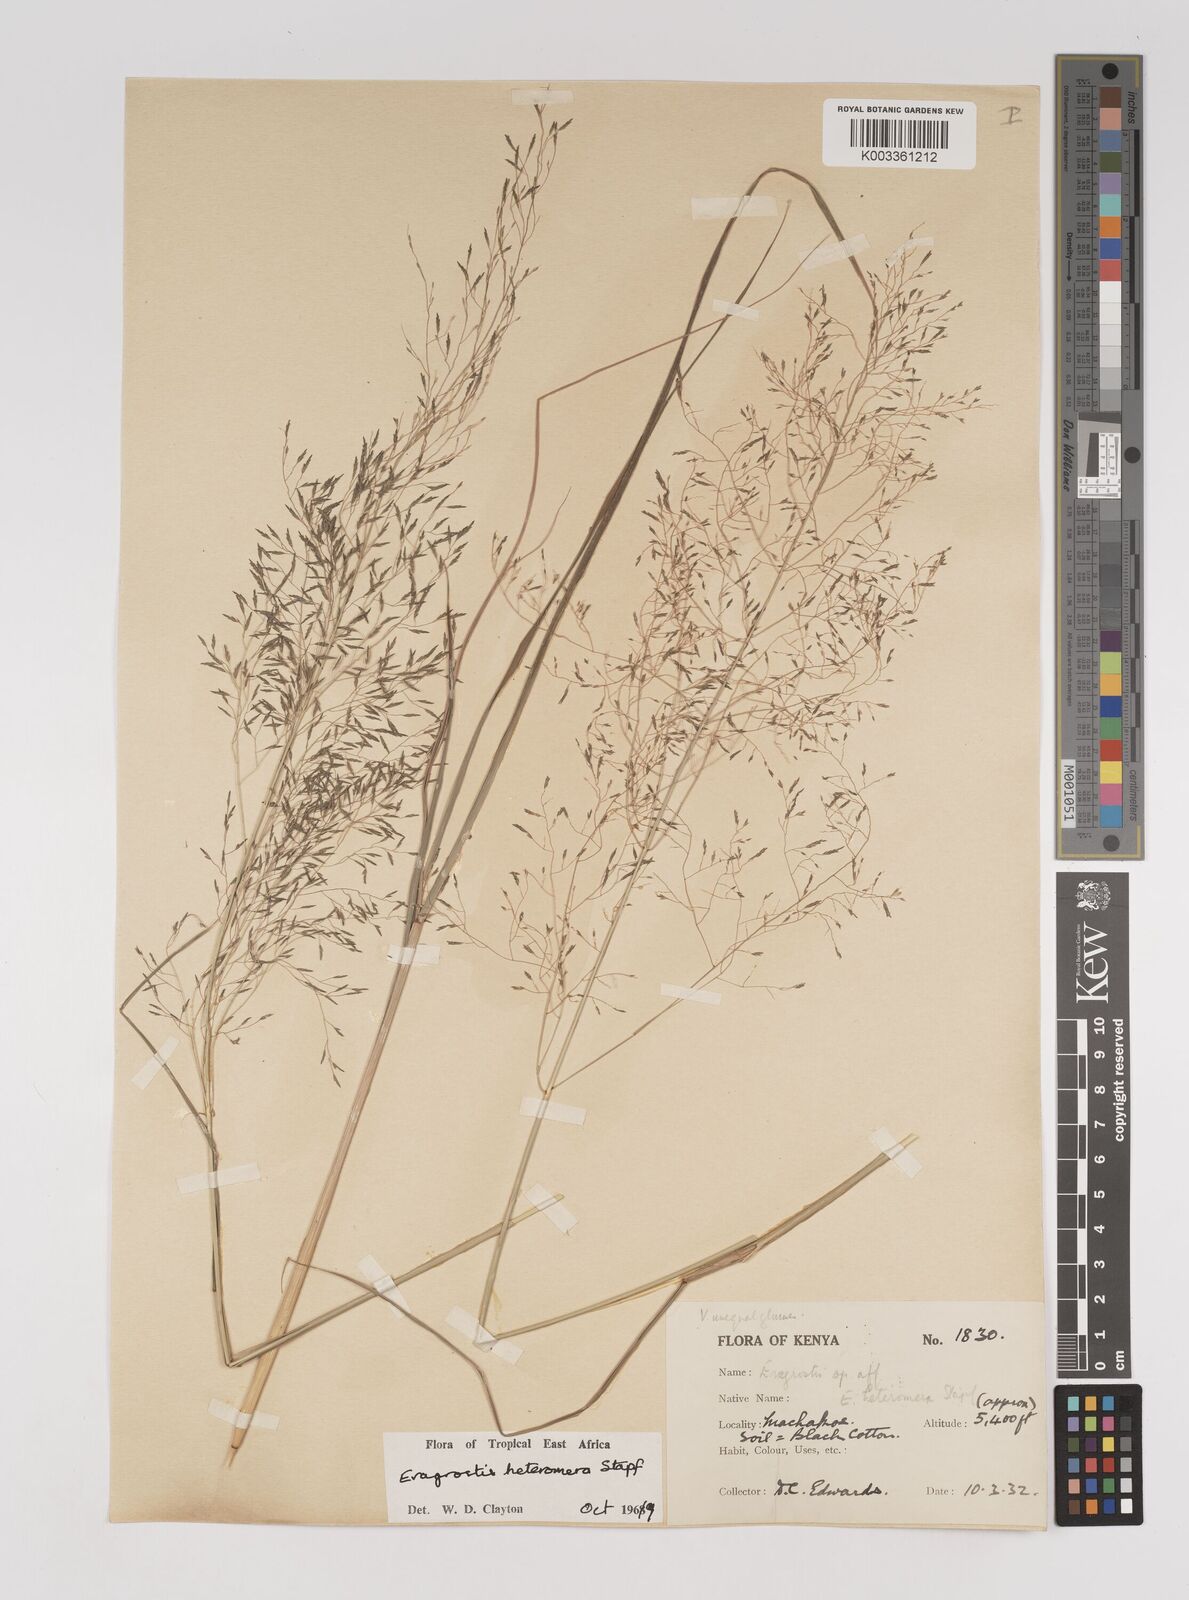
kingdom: Plantae
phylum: Tracheophyta
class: Liliopsida
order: Poales
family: Poaceae
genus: Eragrostis
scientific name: Eragrostis heteromera
